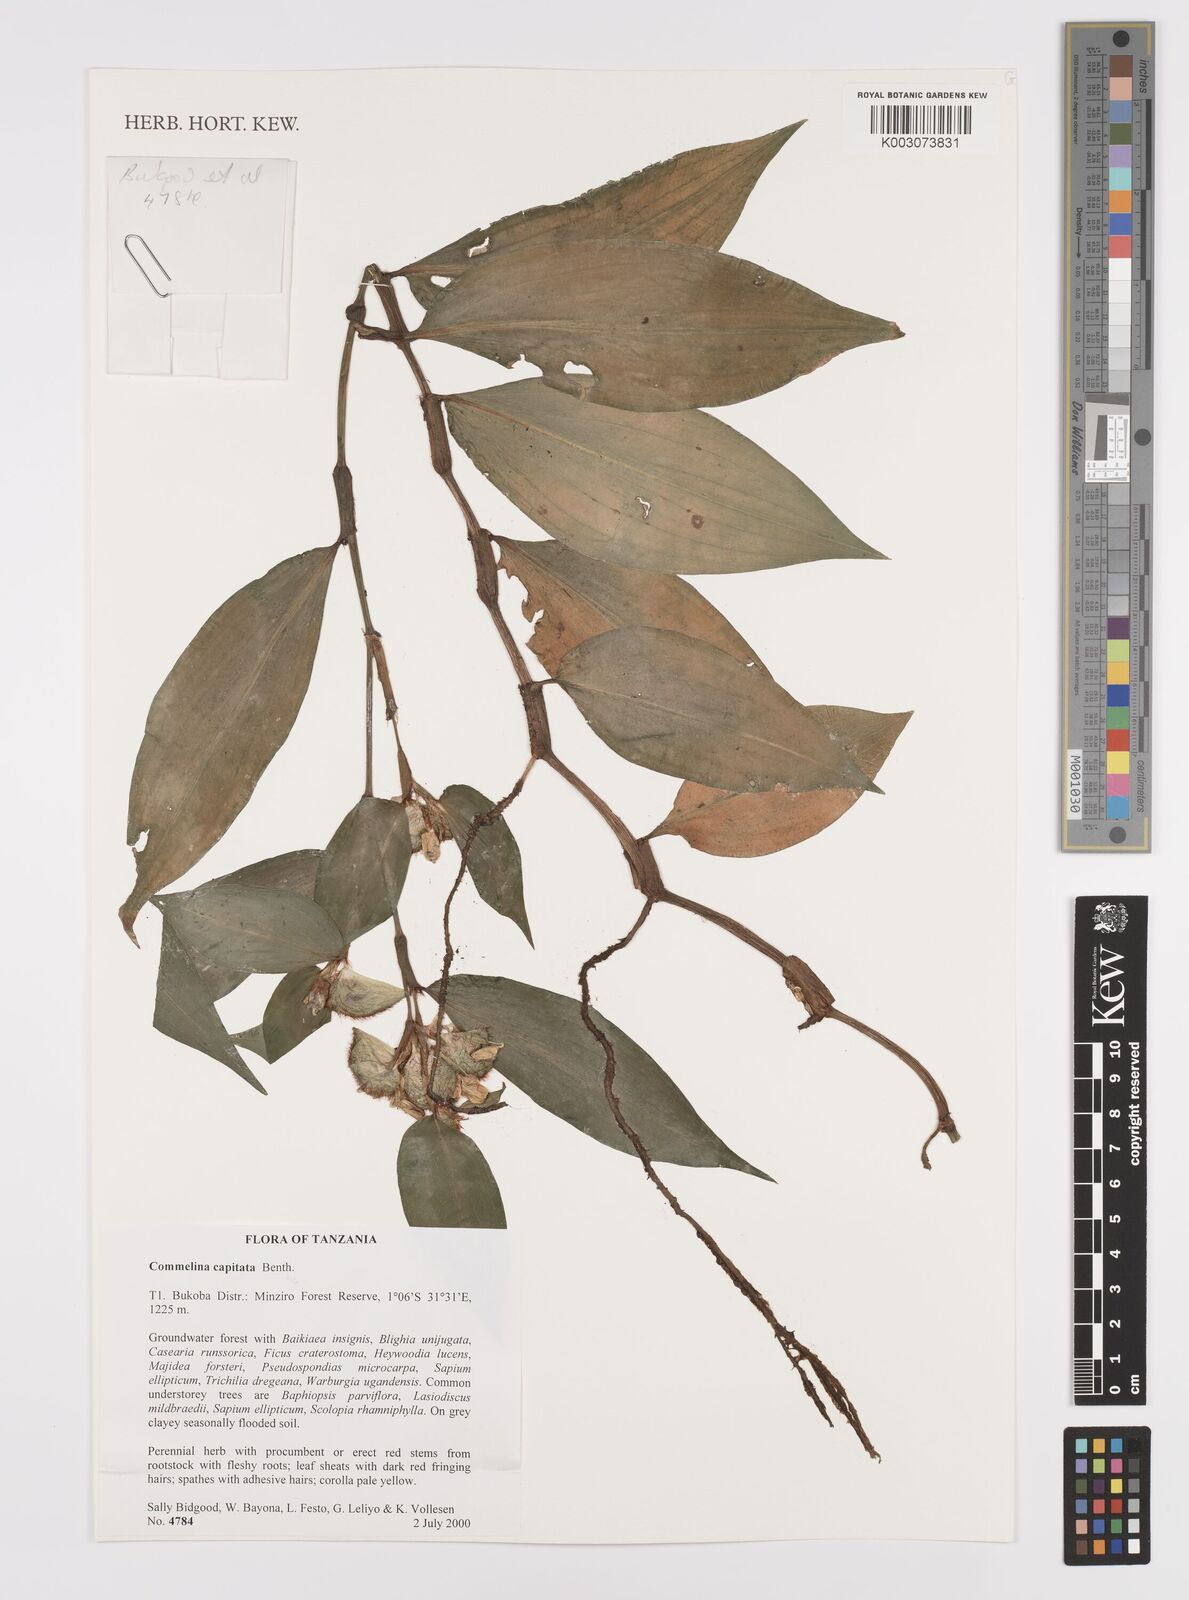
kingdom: Plantae
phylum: Tracheophyta
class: Liliopsida
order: Commelinales
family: Commelinaceae
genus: Commelina
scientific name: Commelina capitata
